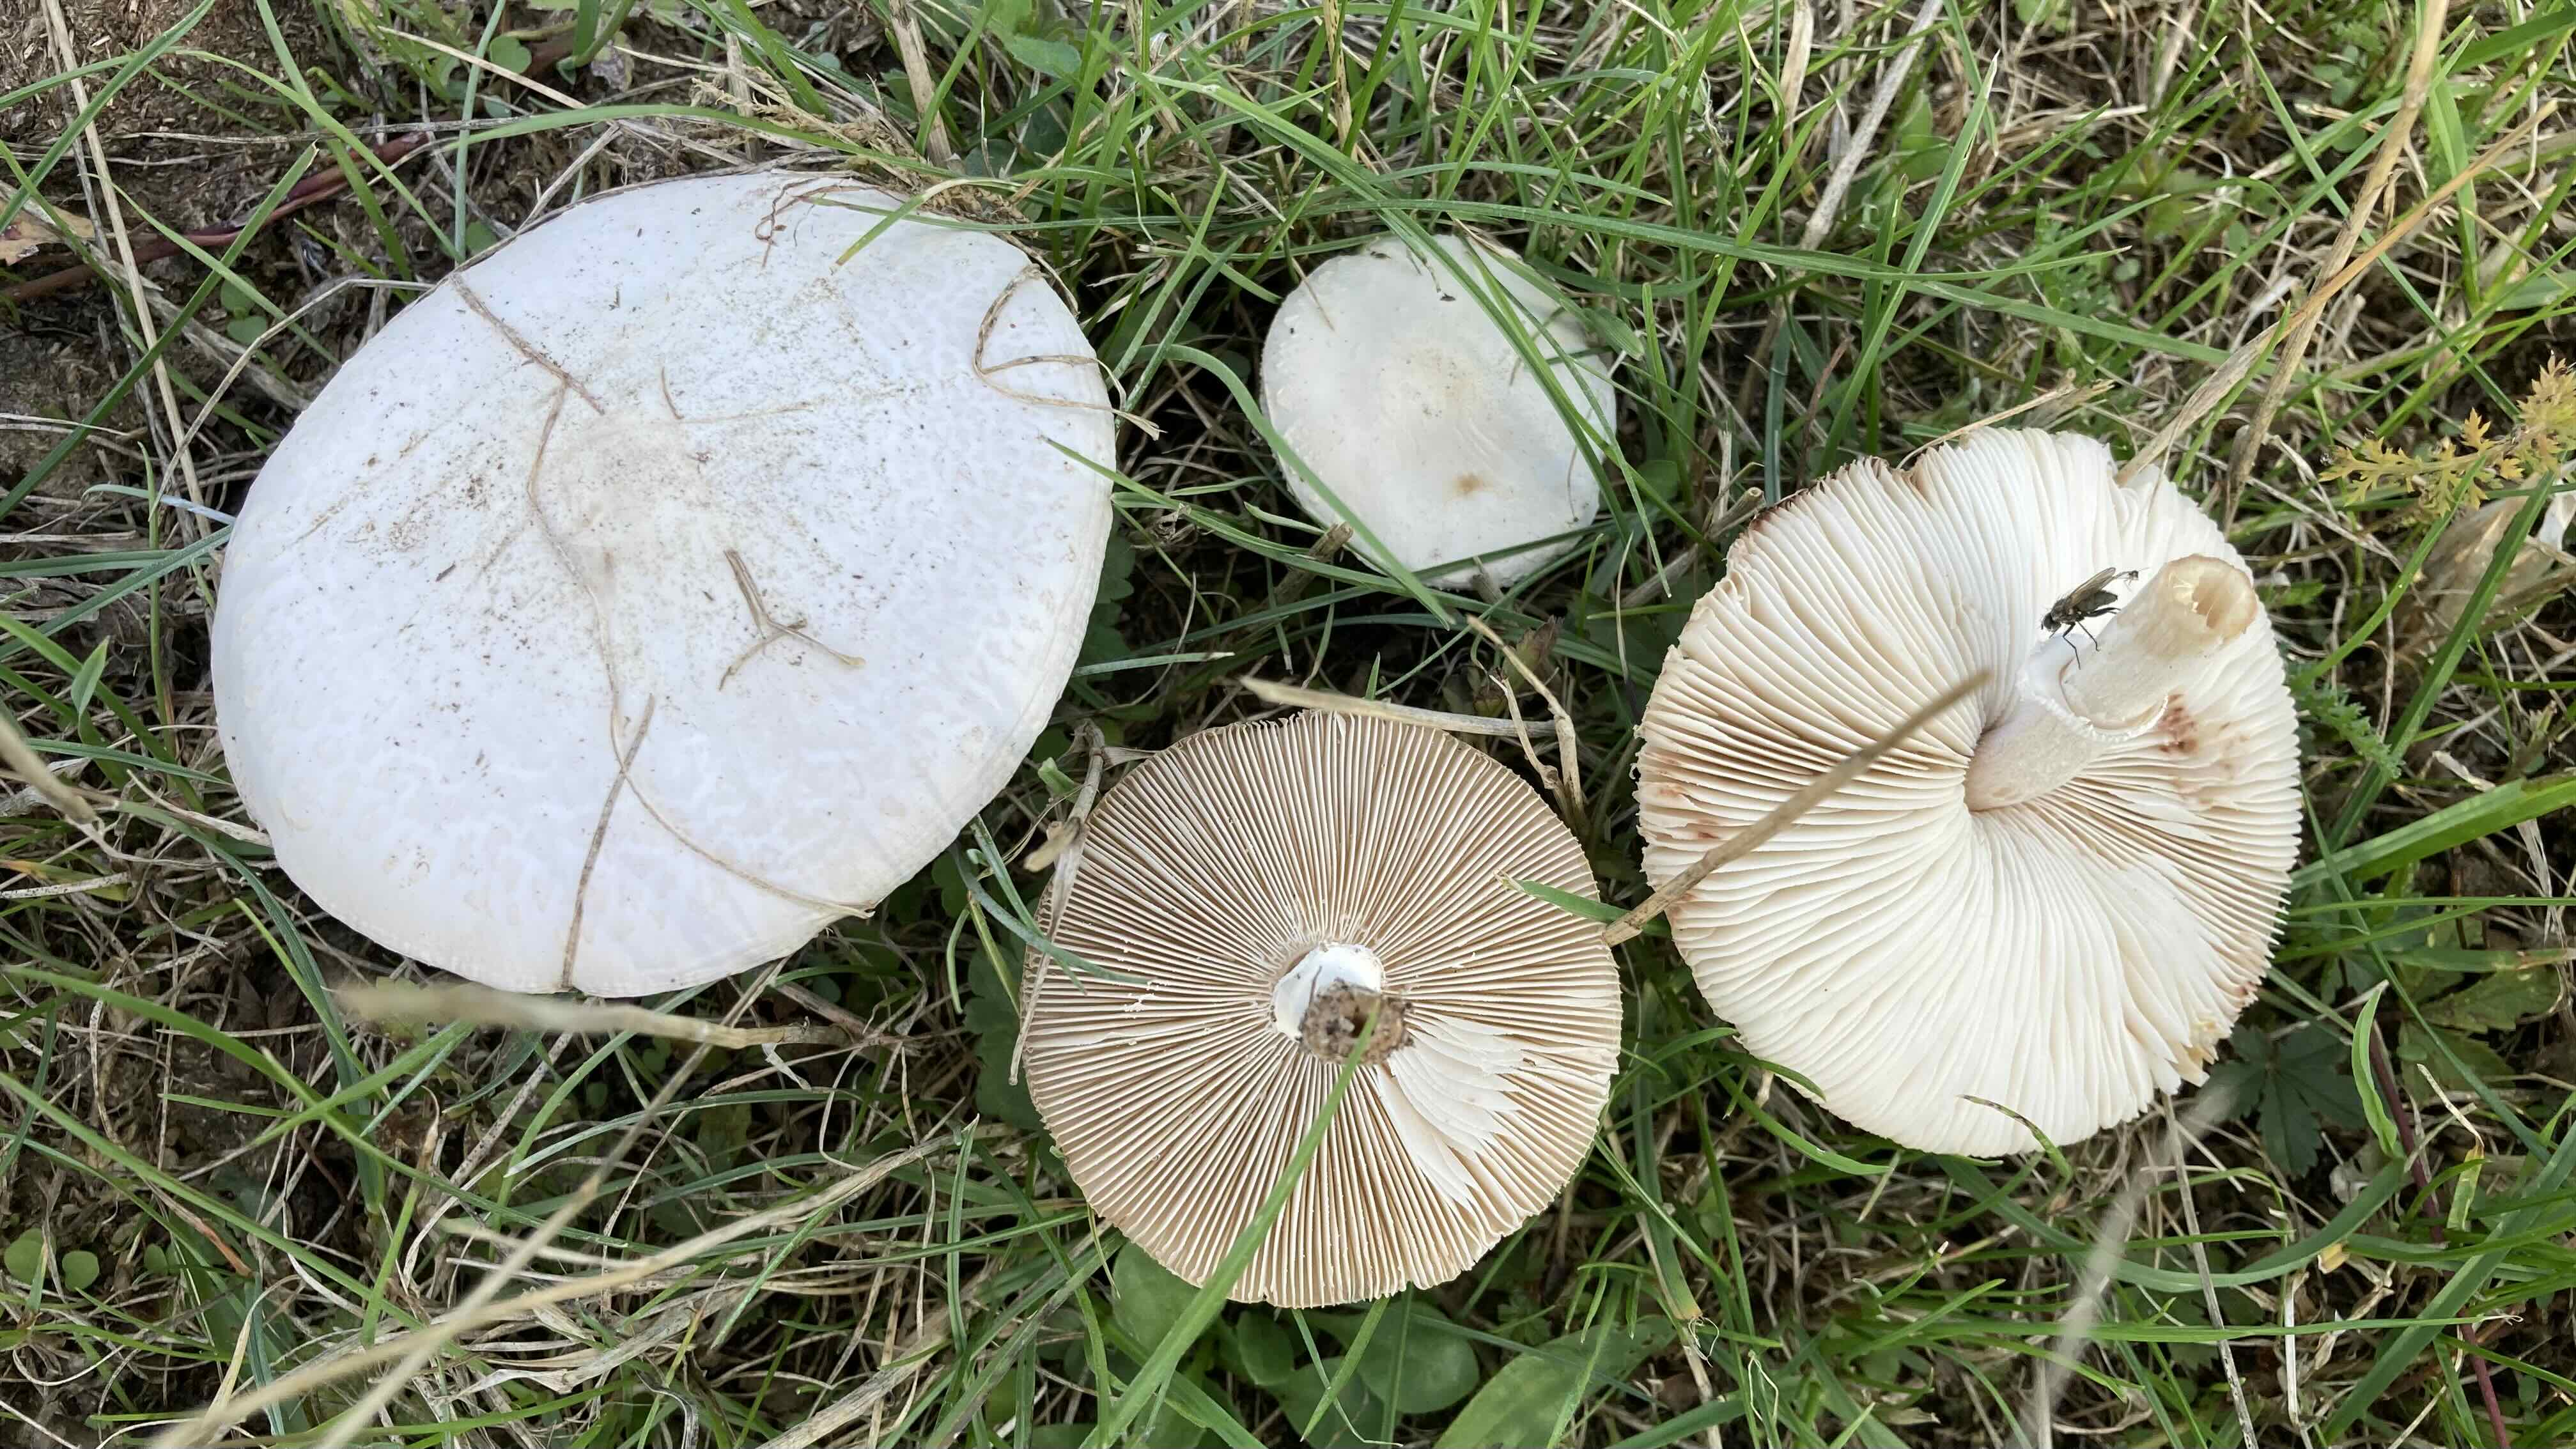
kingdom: Fungi
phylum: Basidiomycota
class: Agaricomycetes
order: Agaricales
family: Agaricaceae
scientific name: Agaricaceae
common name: champignonfamilien
